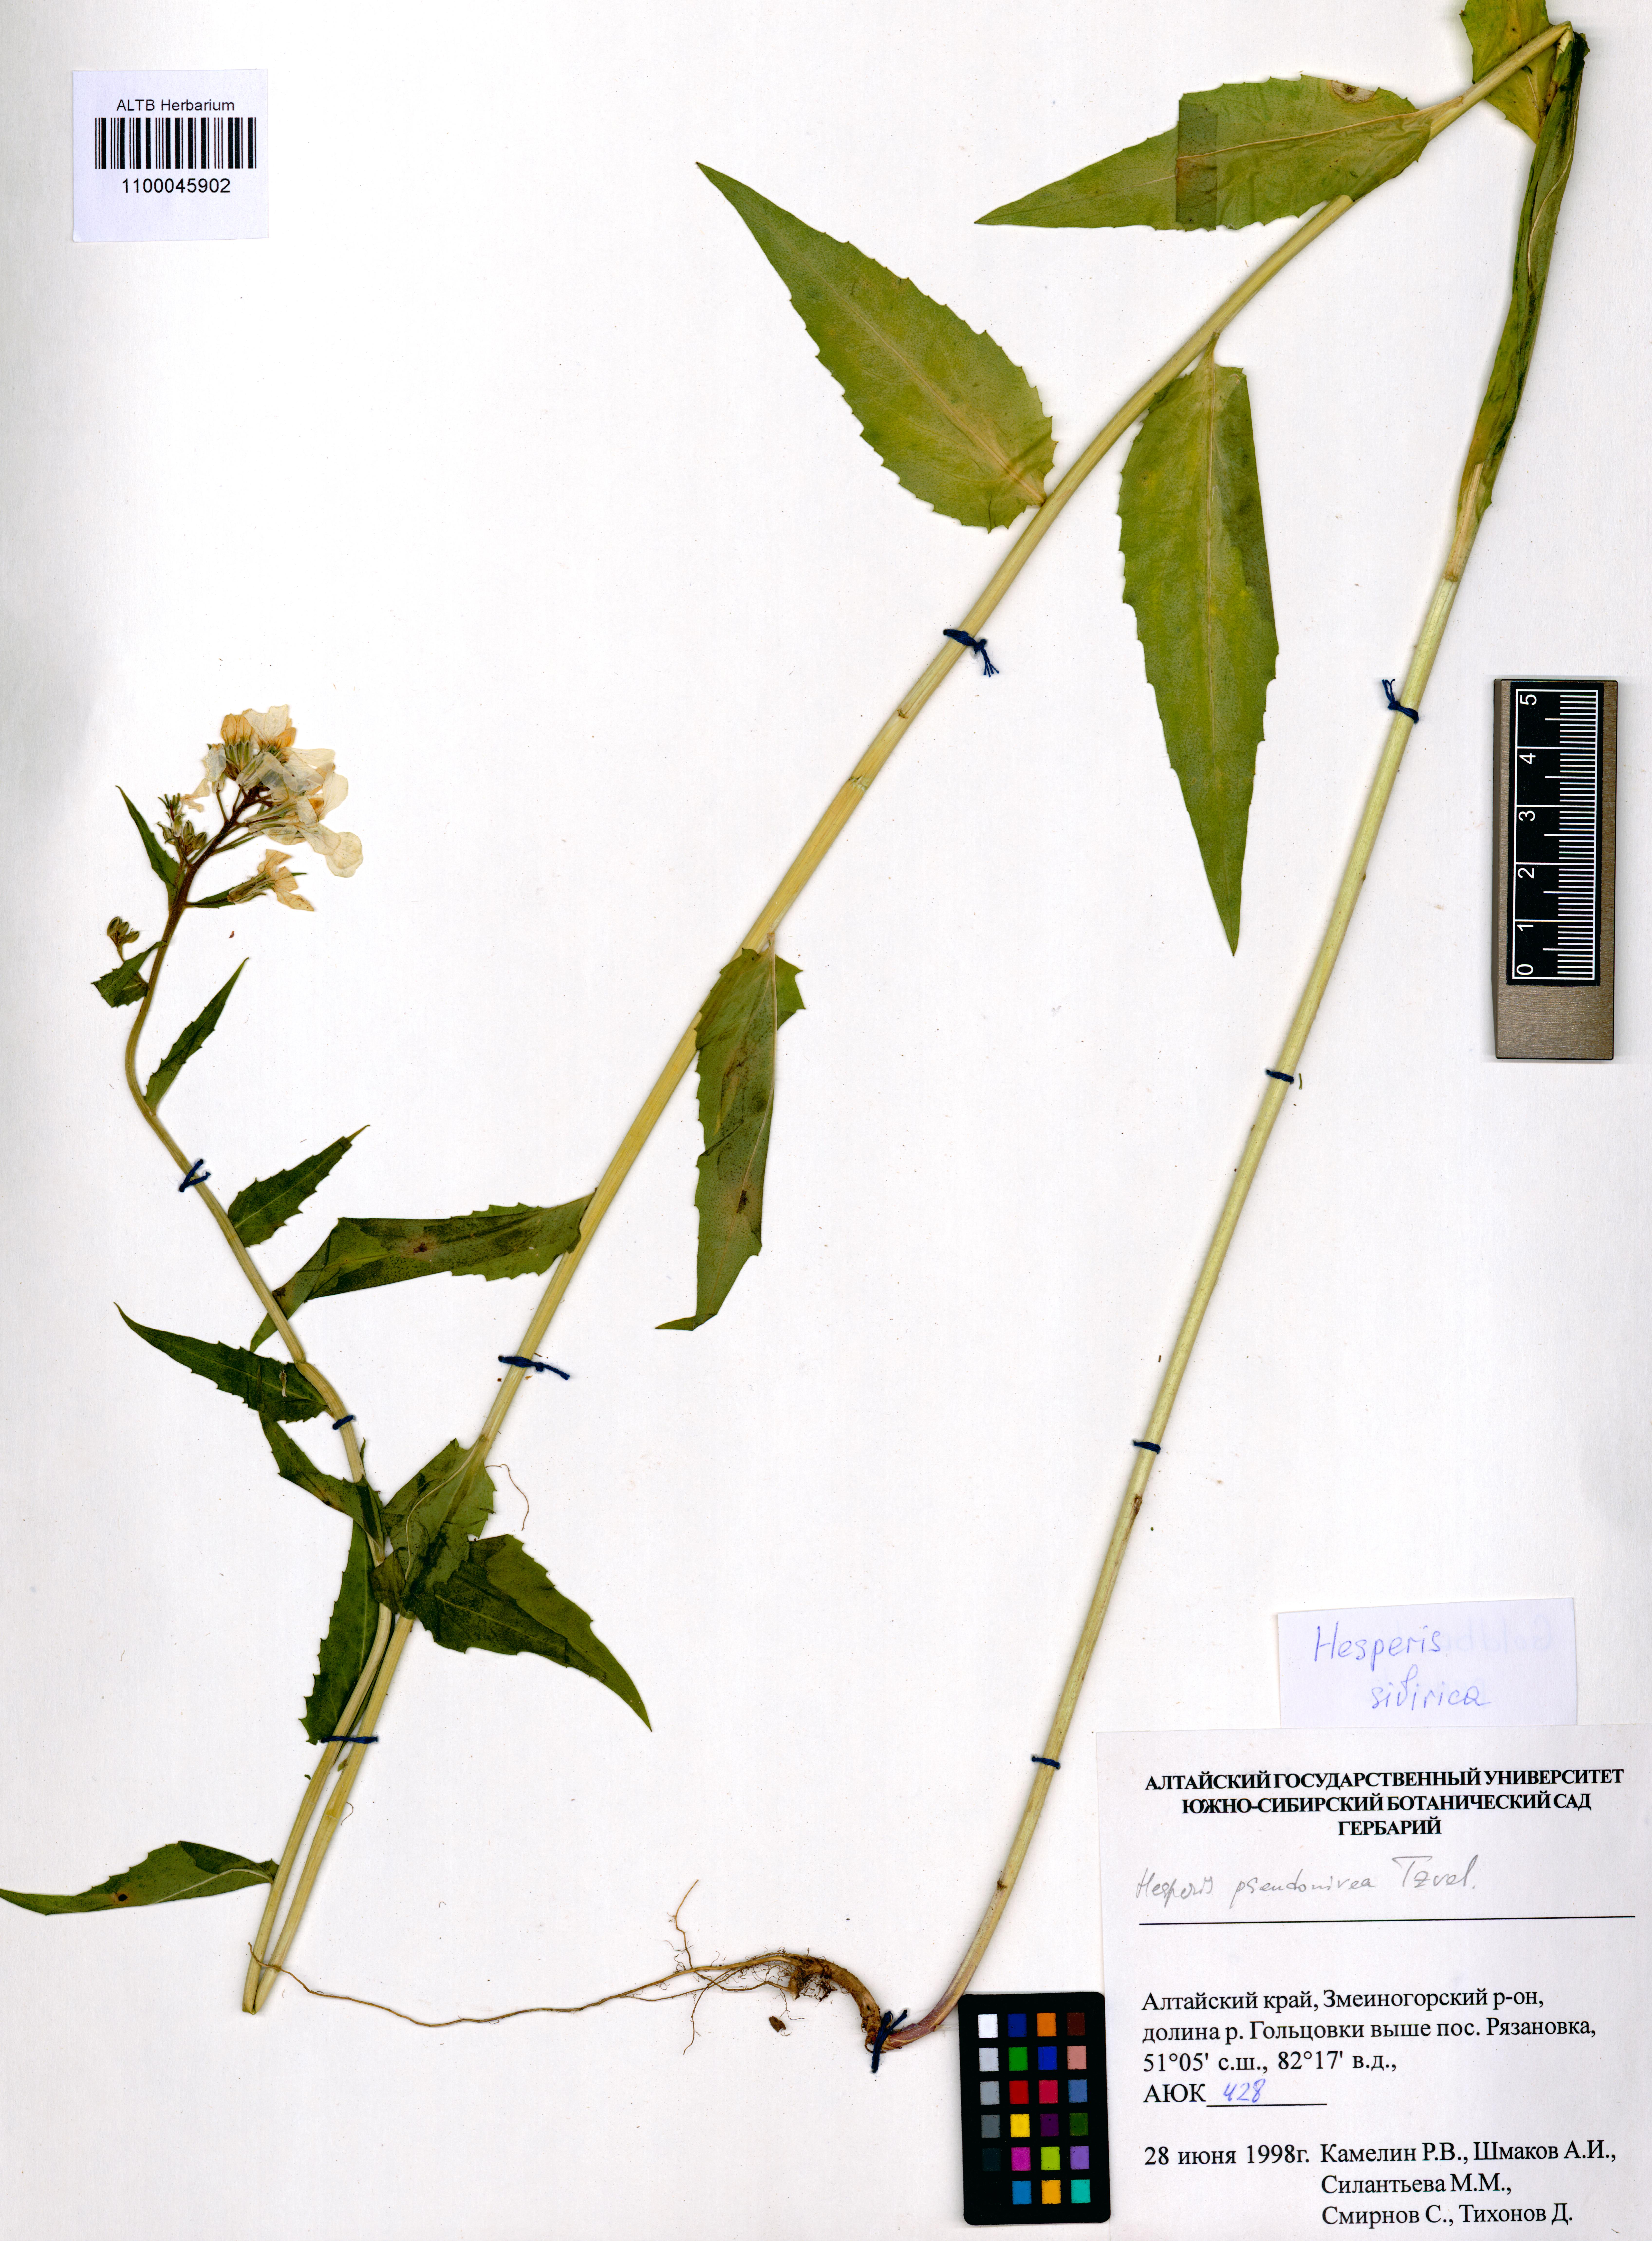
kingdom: Plantae
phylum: Tracheophyta
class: Magnoliopsida
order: Brassicales
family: Brassicaceae
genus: Hesperis
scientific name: Hesperis sibirica
